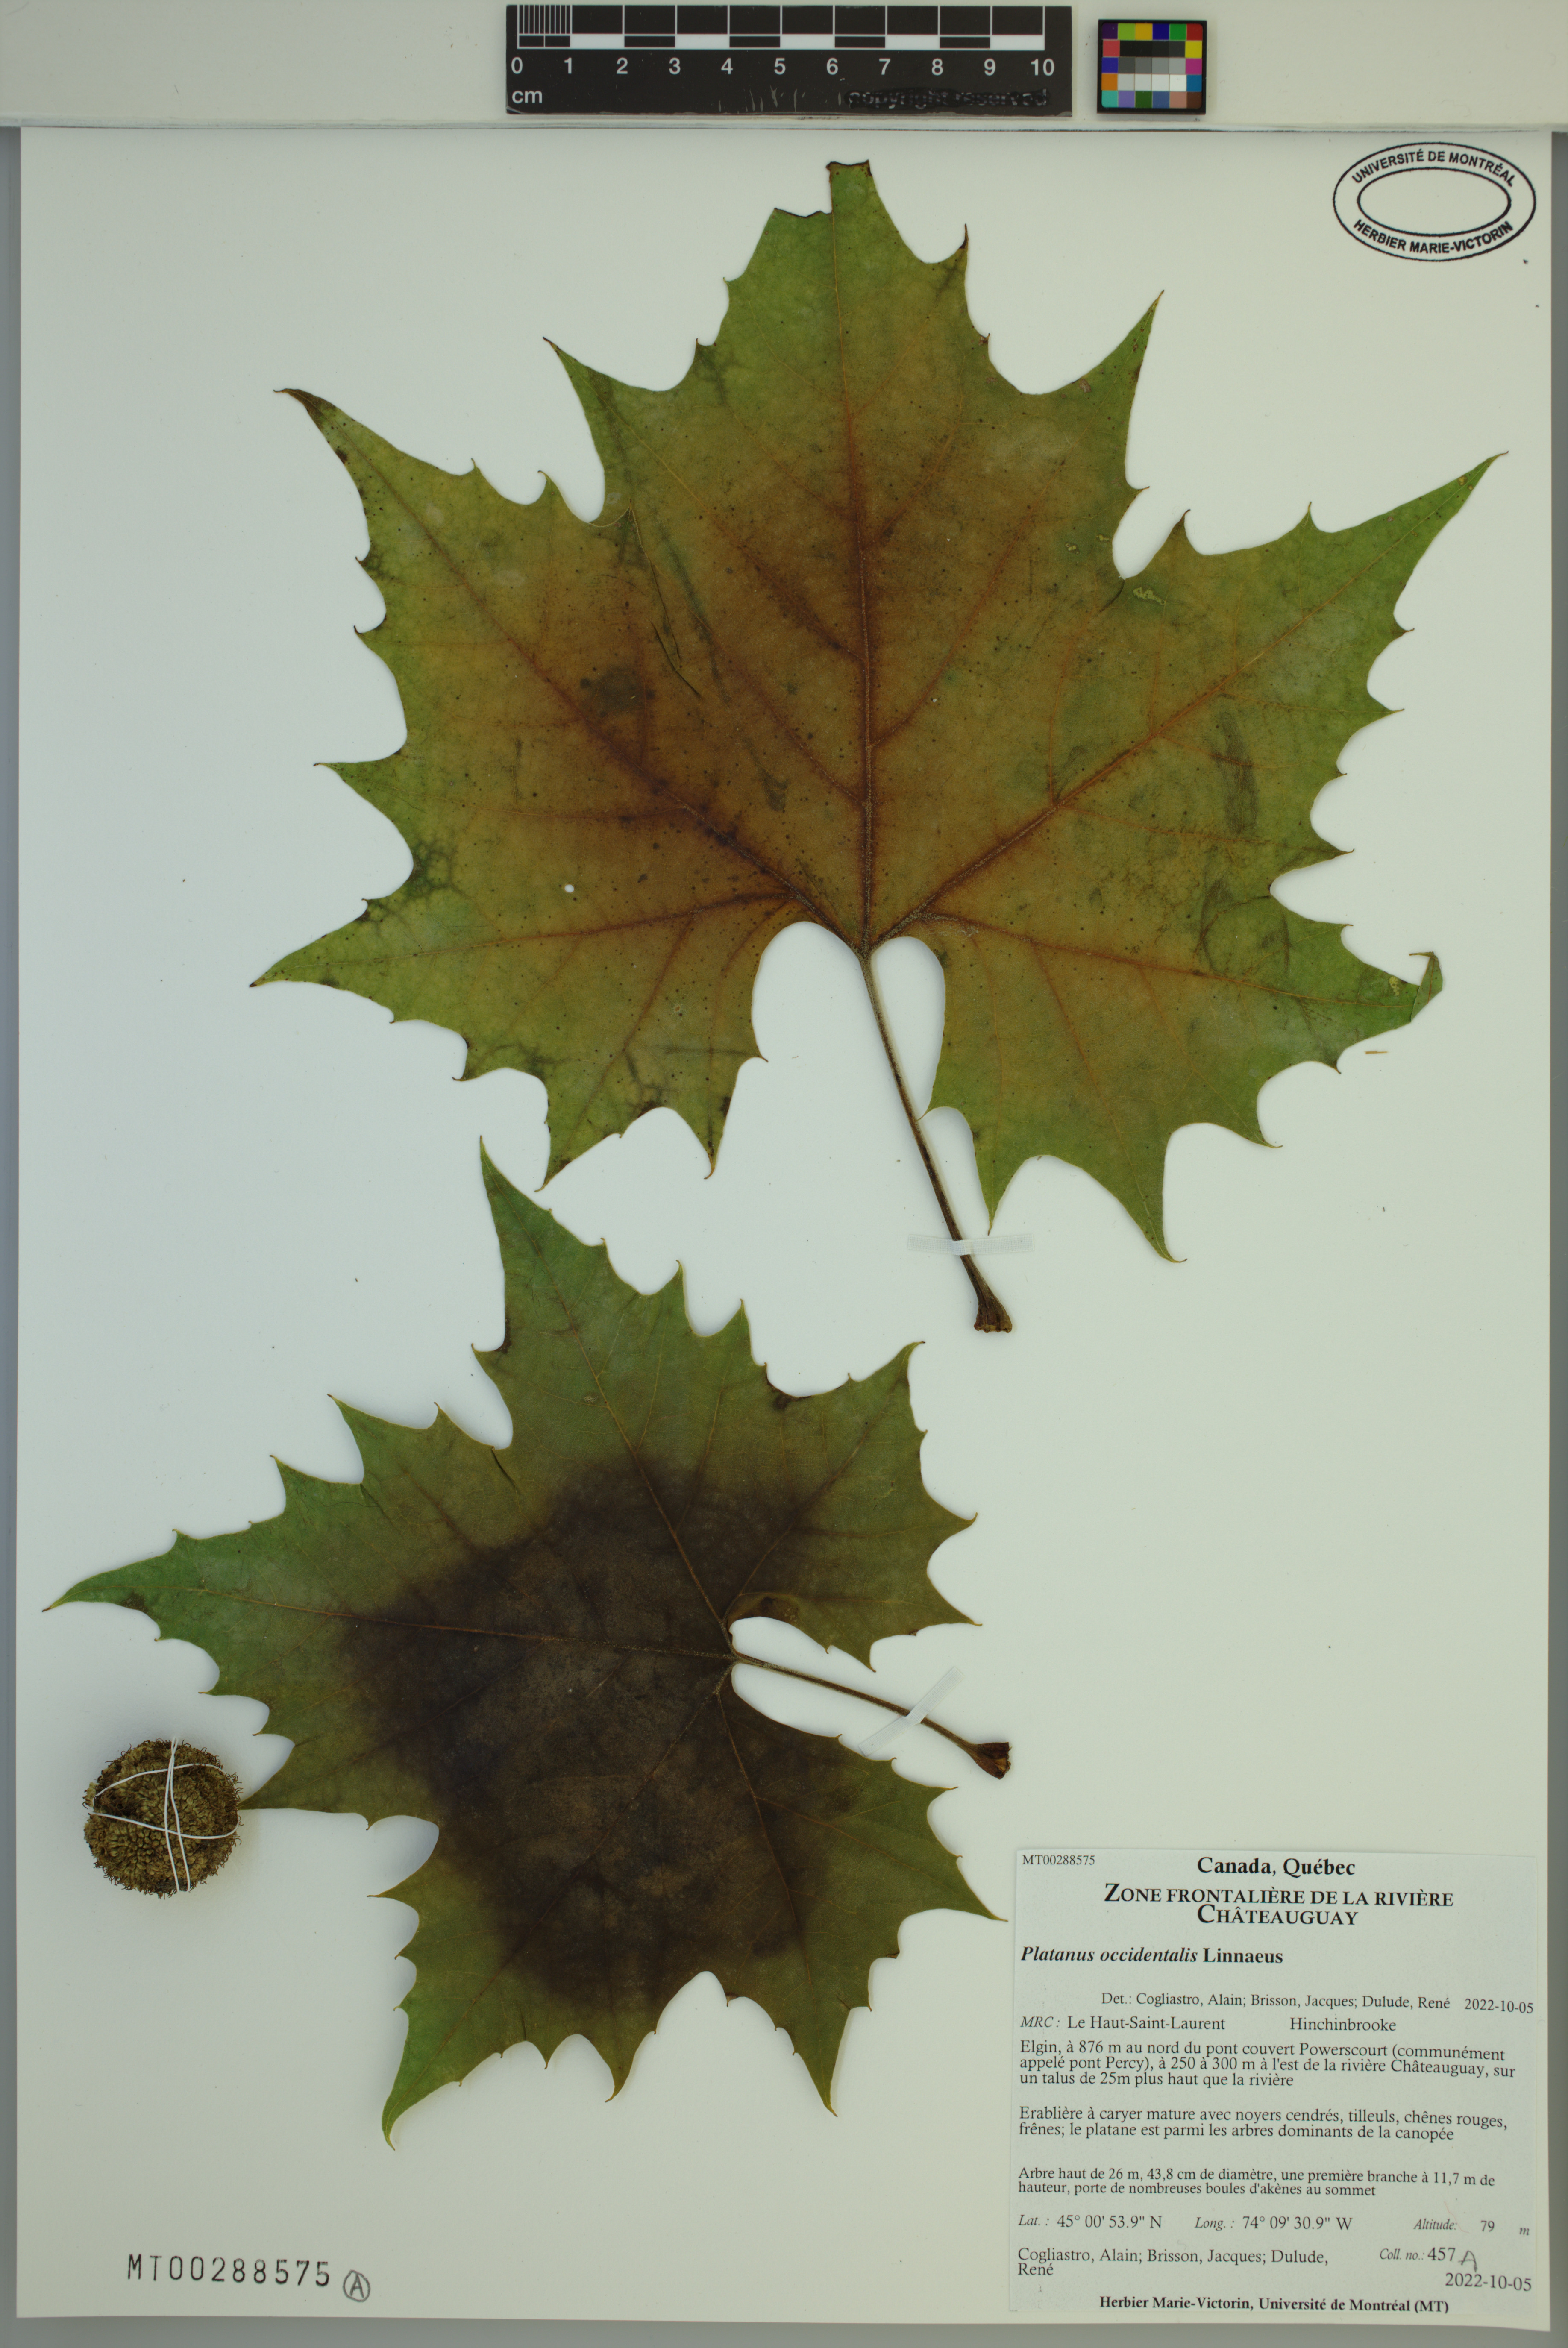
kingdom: Plantae
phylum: Tracheophyta
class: Magnoliopsida
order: Proteales
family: Platanaceae
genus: Platanus
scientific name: Platanus occidentalis
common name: American sycamore
